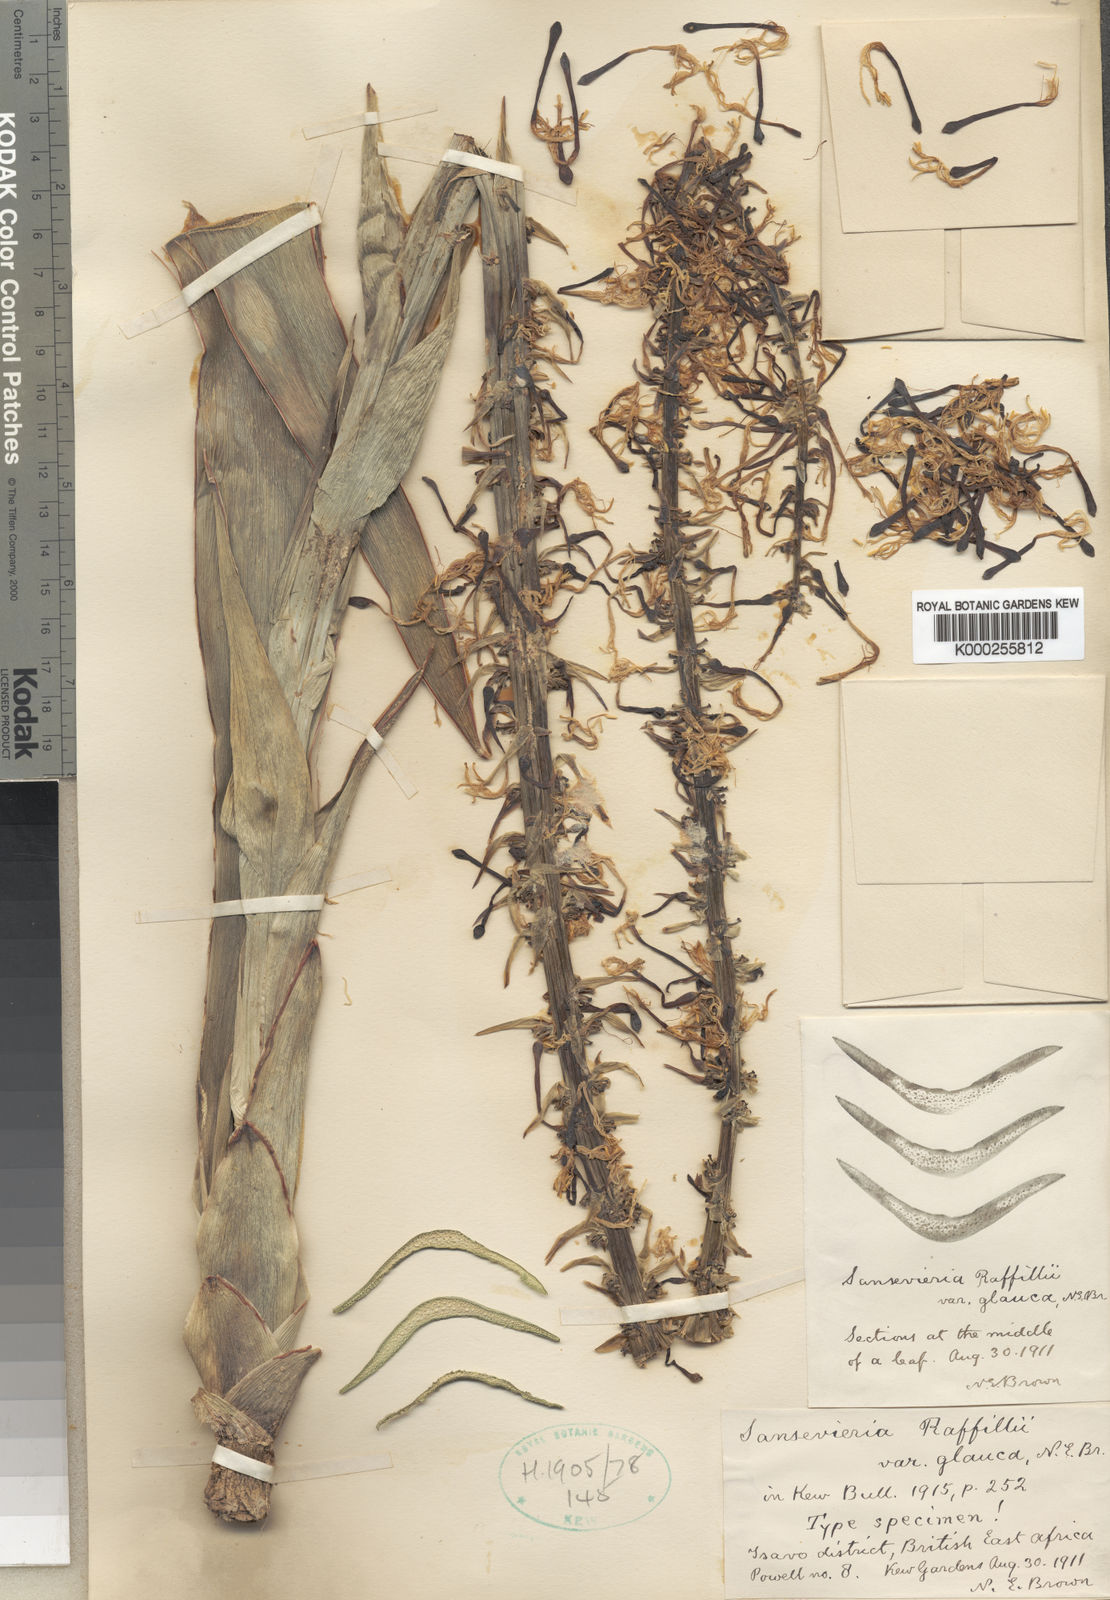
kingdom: Plantae
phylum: Tracheophyta
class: Liliopsida
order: Asparagales
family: Asparagaceae
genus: Dracaena
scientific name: Dracaena raffillii
